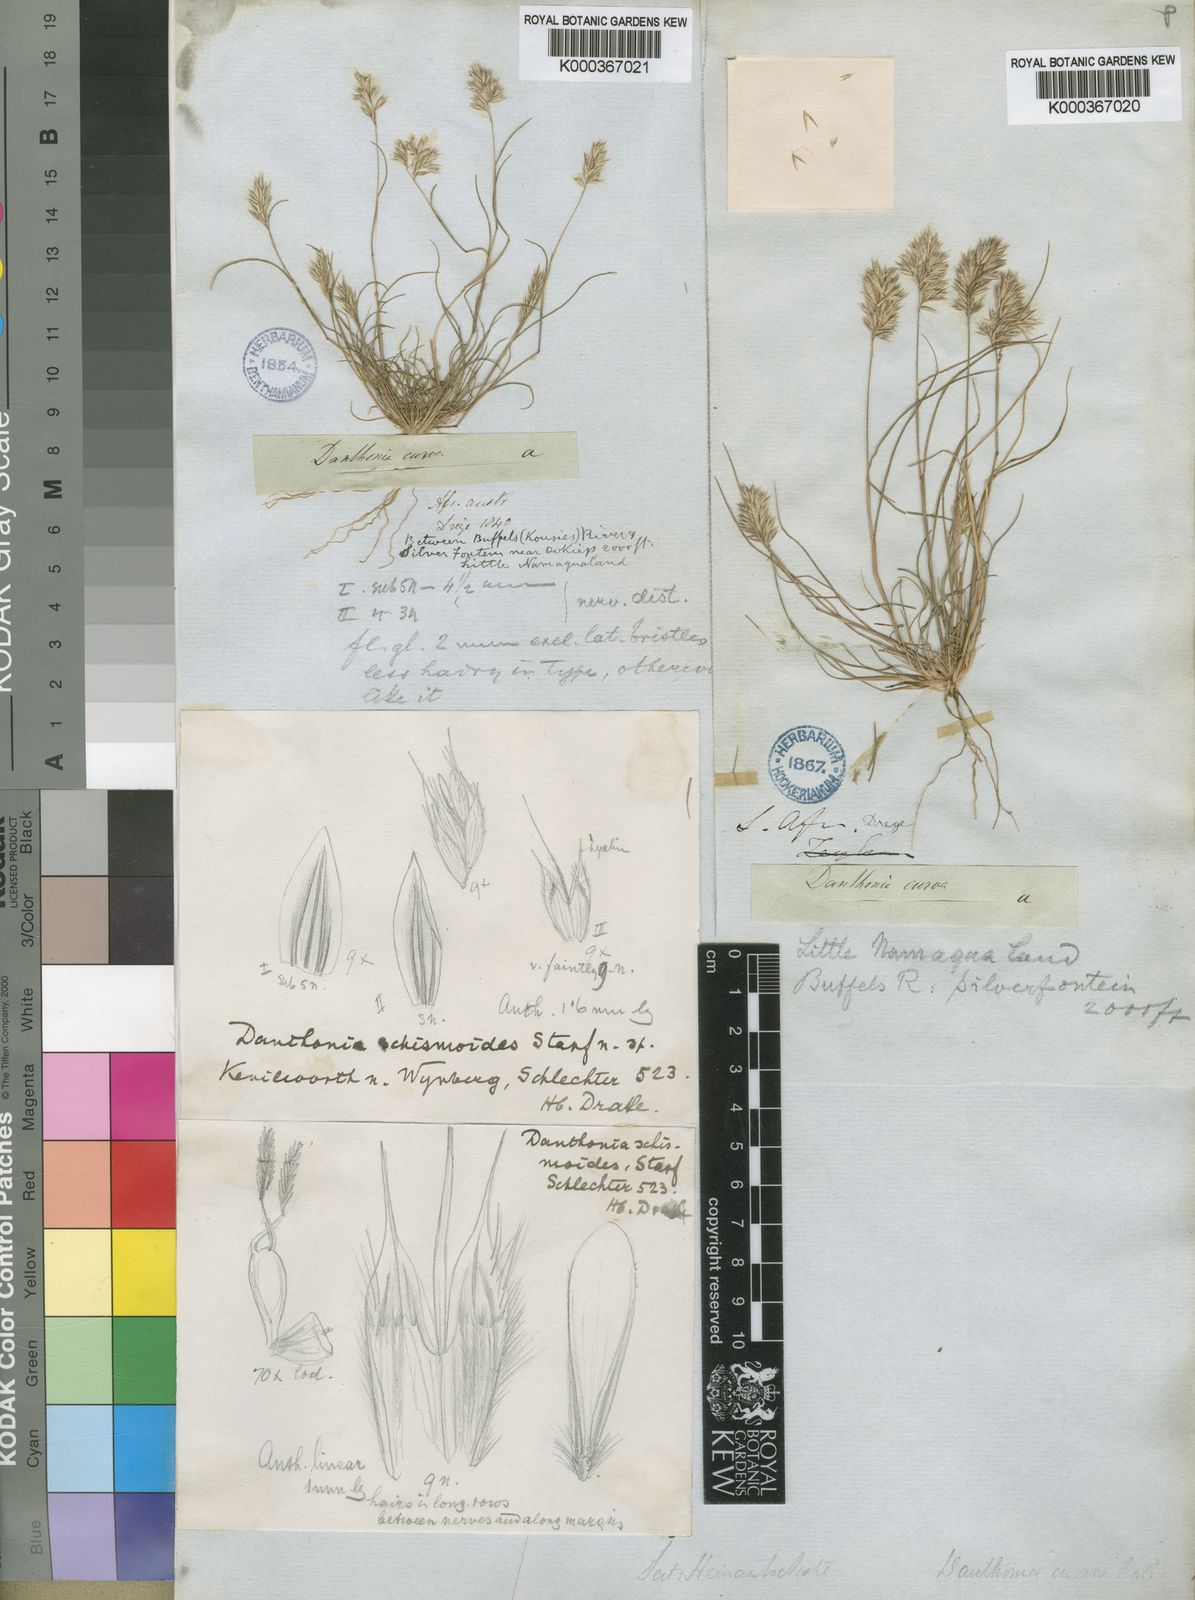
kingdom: Plantae
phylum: Tracheophyta
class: Liliopsida
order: Poales
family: Poaceae
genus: Rytidosperma
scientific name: Rytidosperma
